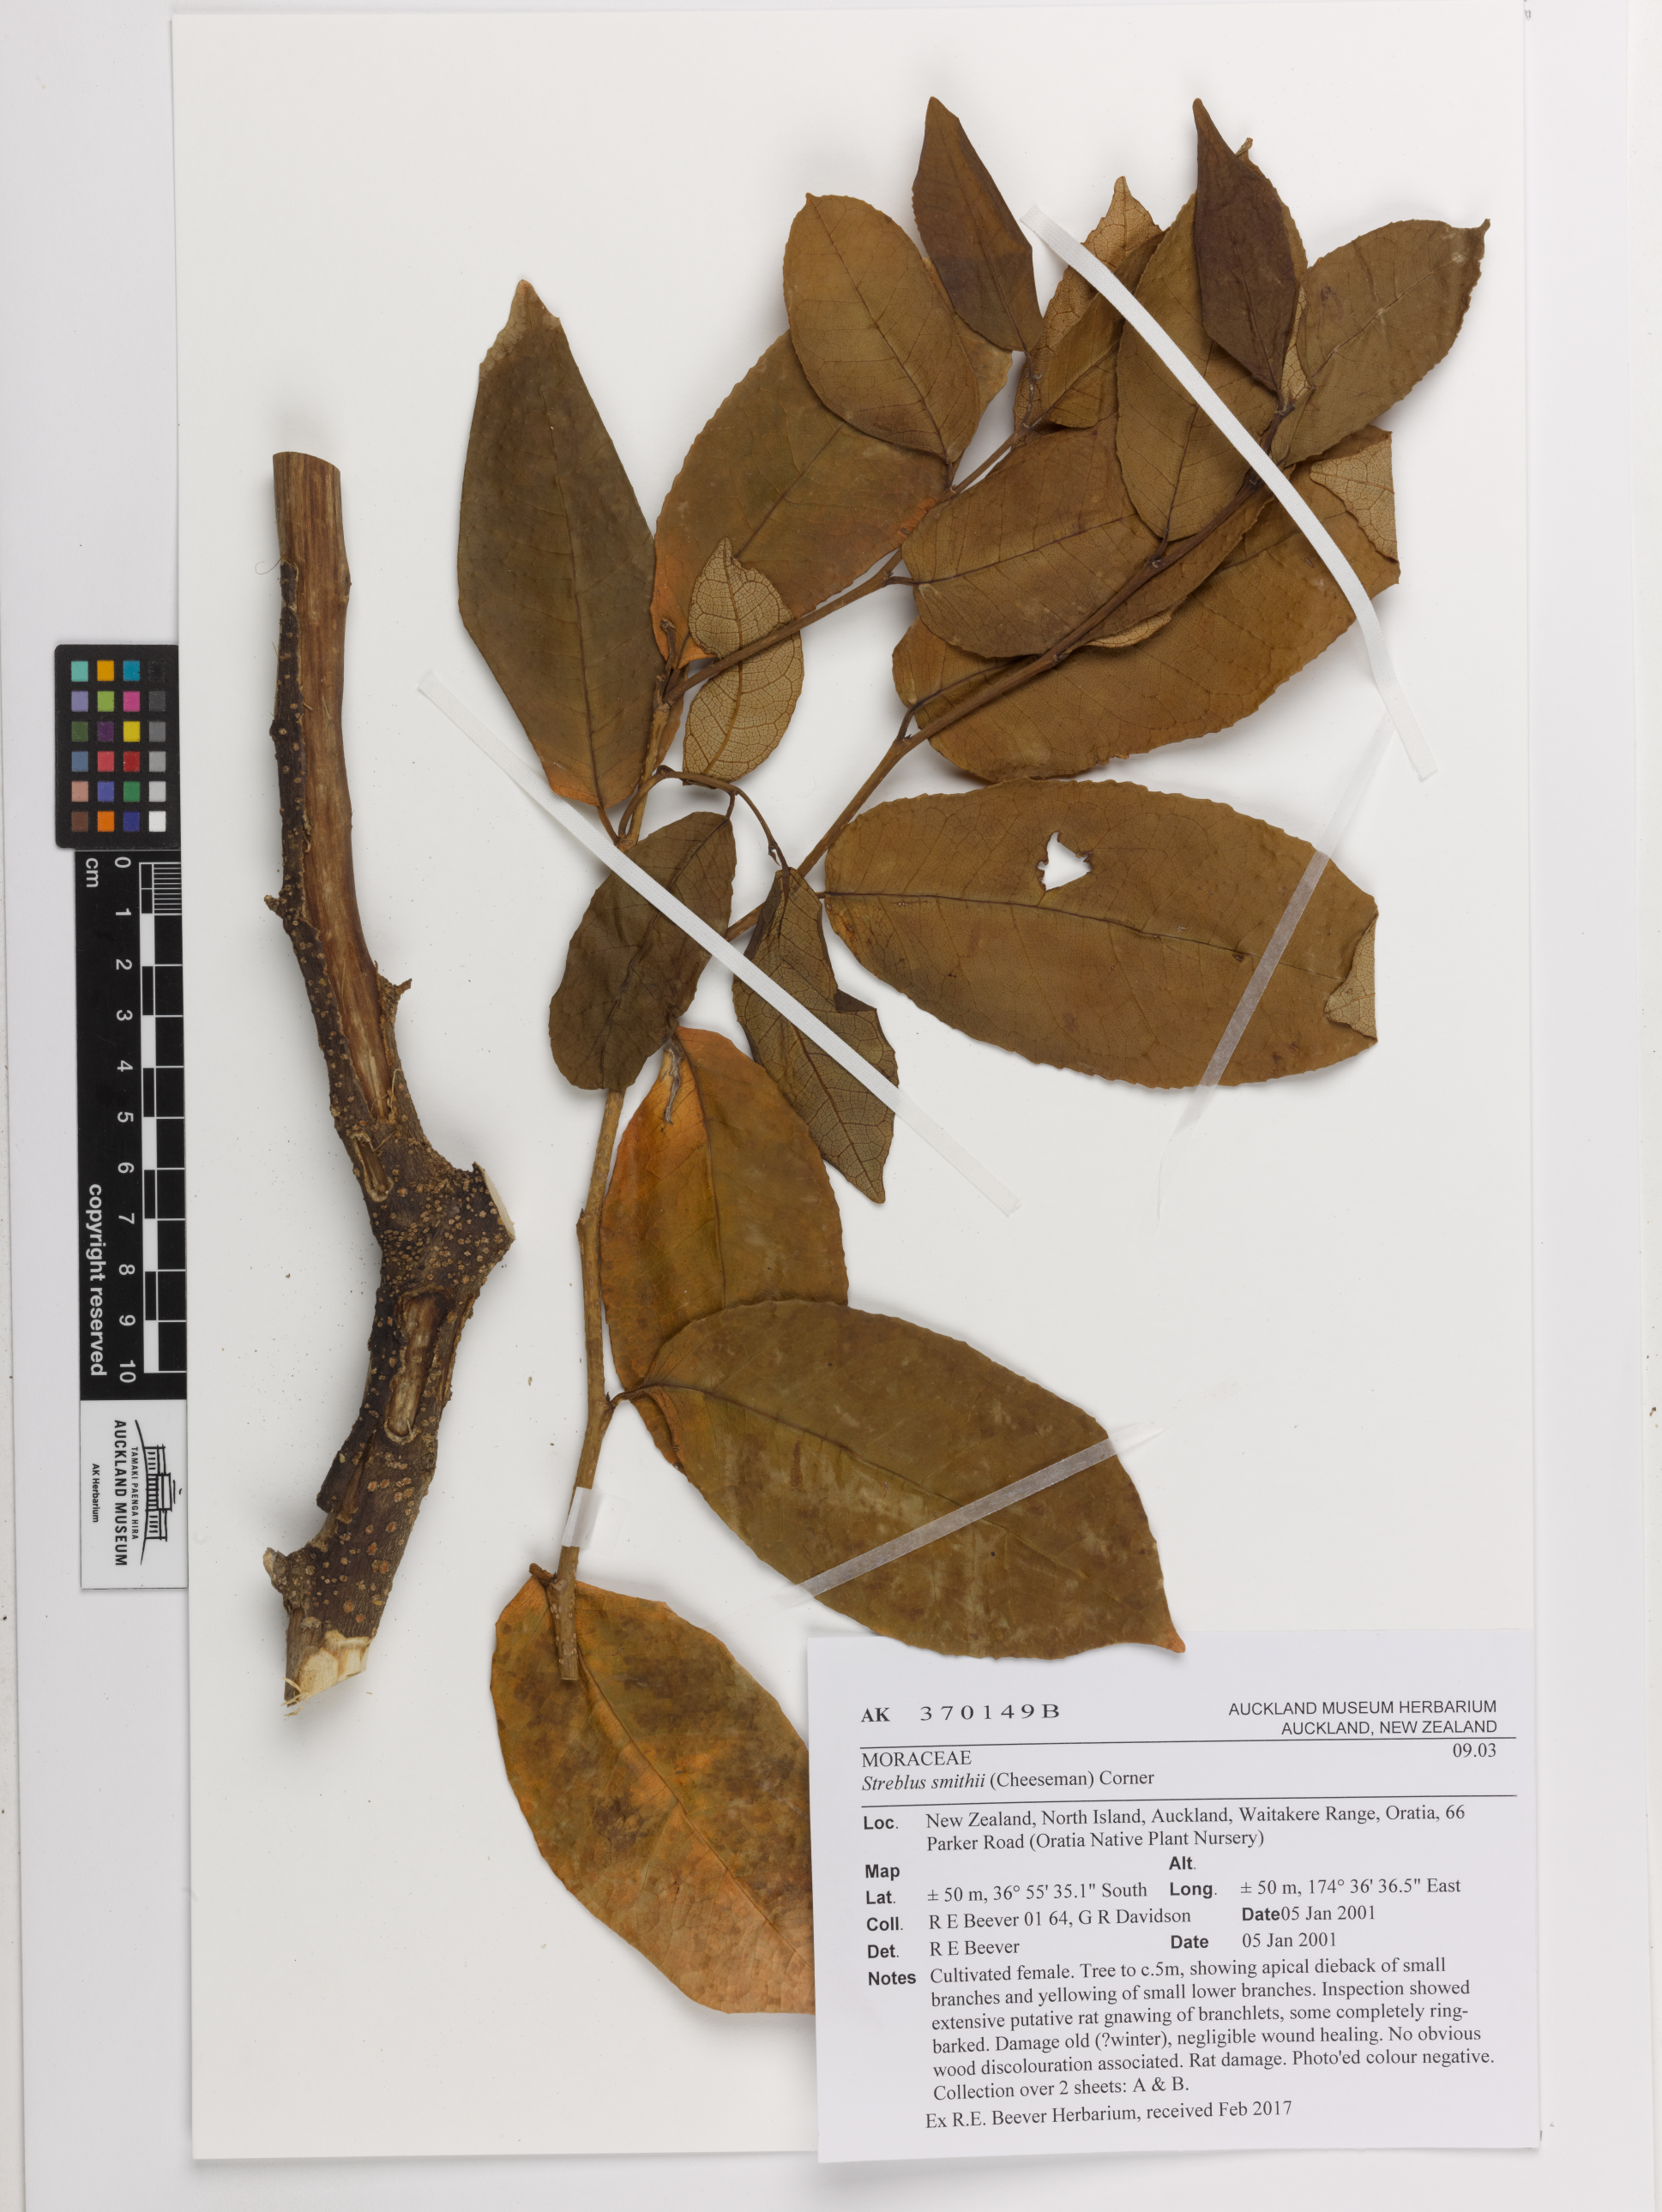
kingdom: Plantae
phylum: Tracheophyta
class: Magnoliopsida
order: Rosales
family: Moraceae
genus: Paratrophis
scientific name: Paratrophis smithii
